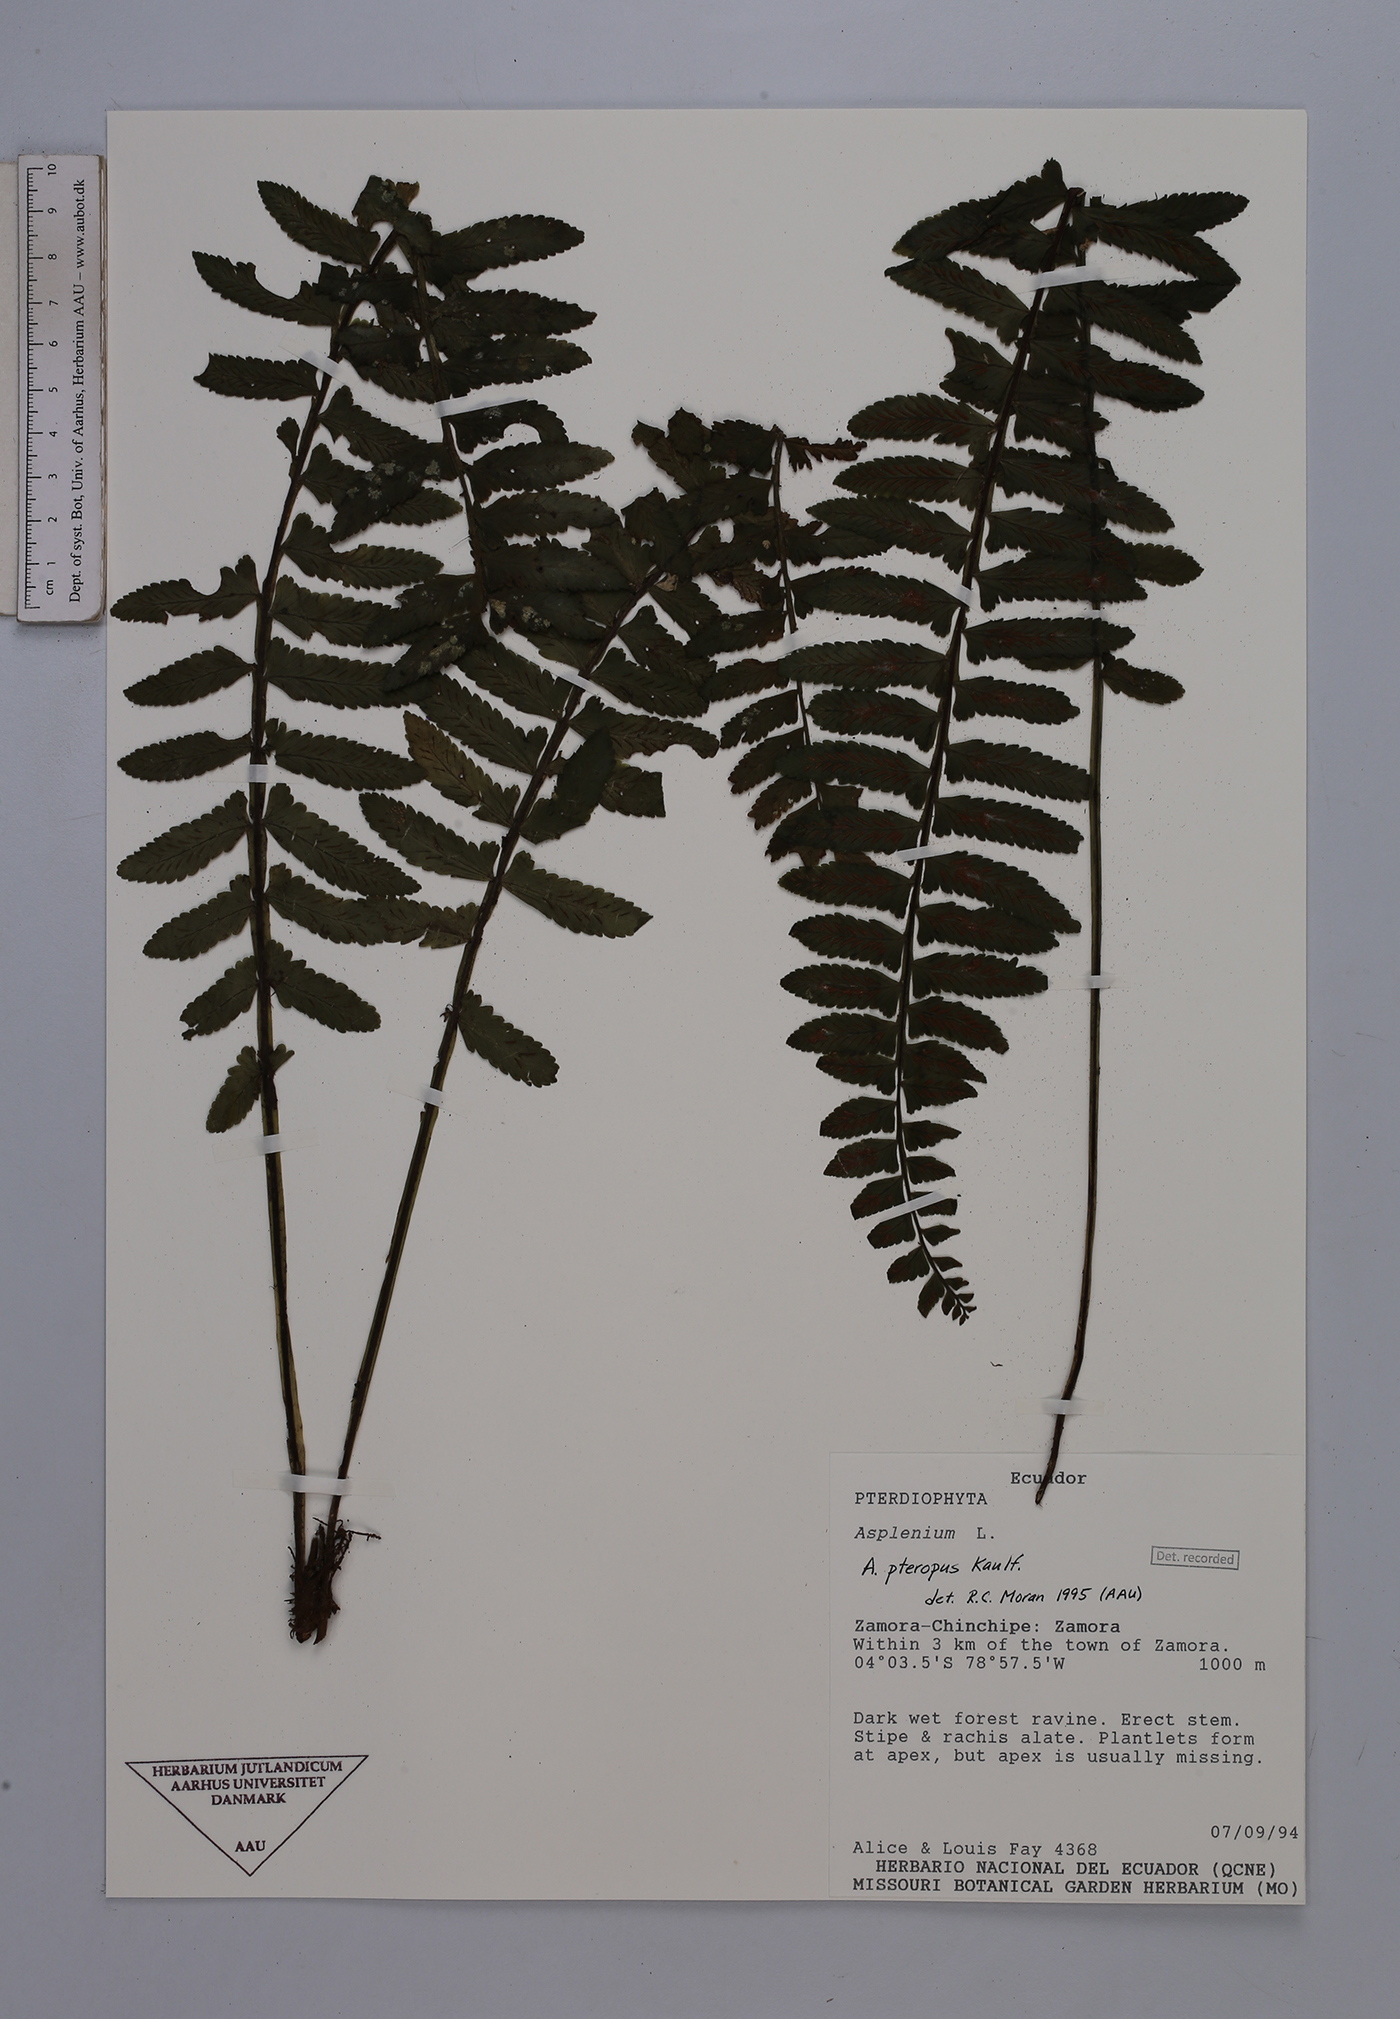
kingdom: Plantae
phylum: Tracheophyta
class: Polypodiopsida
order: Polypodiales
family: Aspleniaceae
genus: Asplenium
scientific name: Asplenium pteropus
